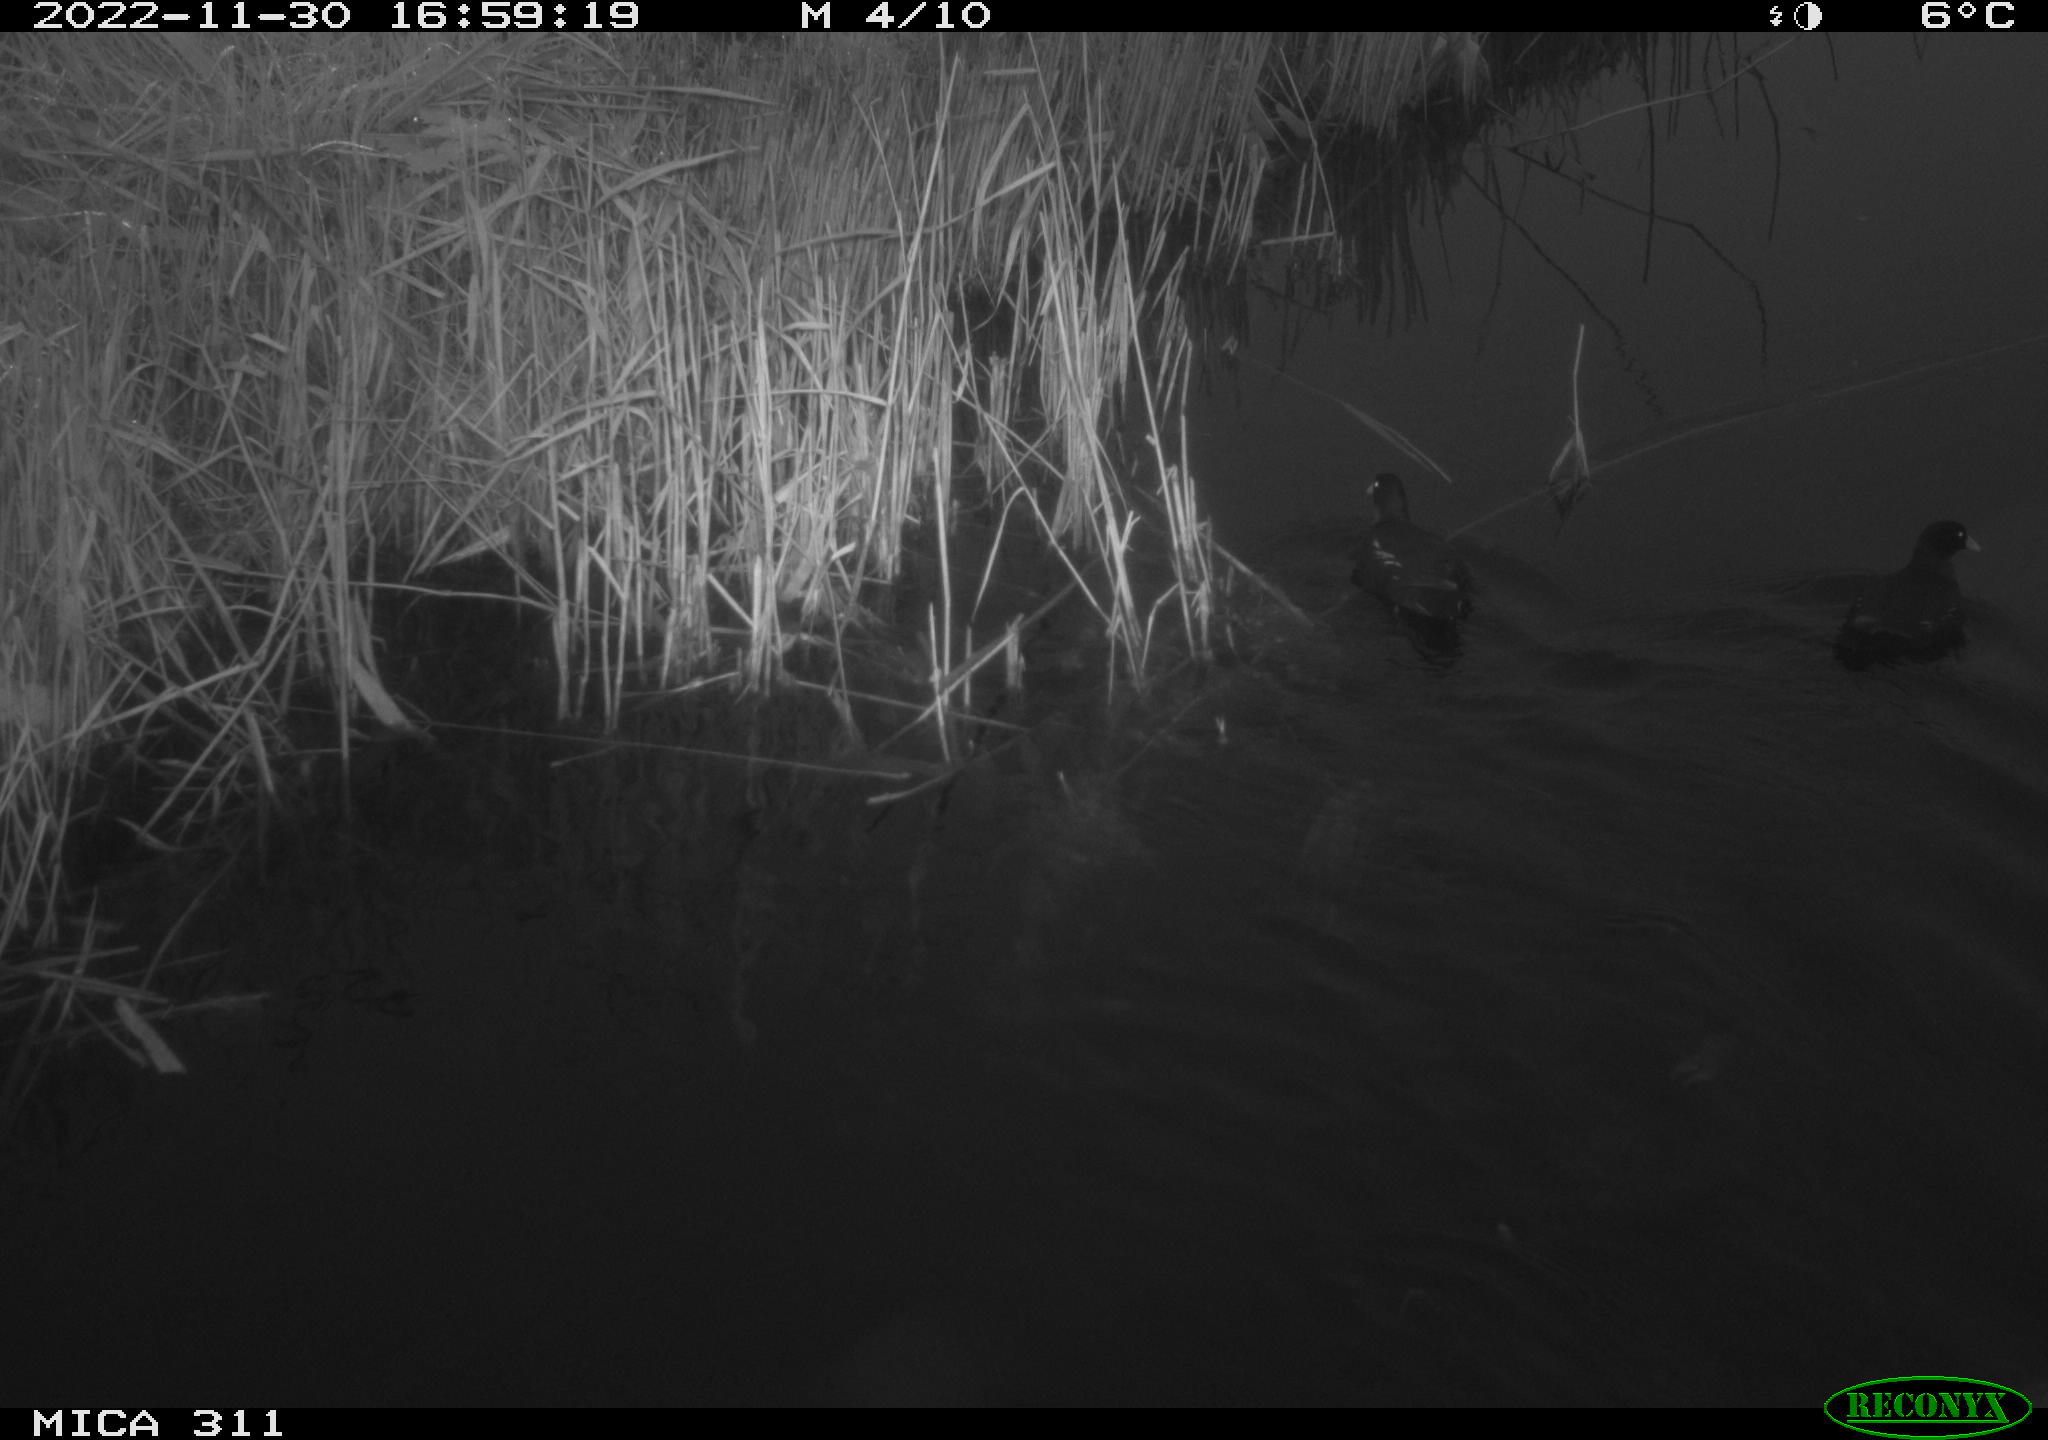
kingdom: Animalia
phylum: Chordata
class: Aves
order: Gruiformes
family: Rallidae
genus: Gallinula
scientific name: Gallinula chloropus
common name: Common moorhen
